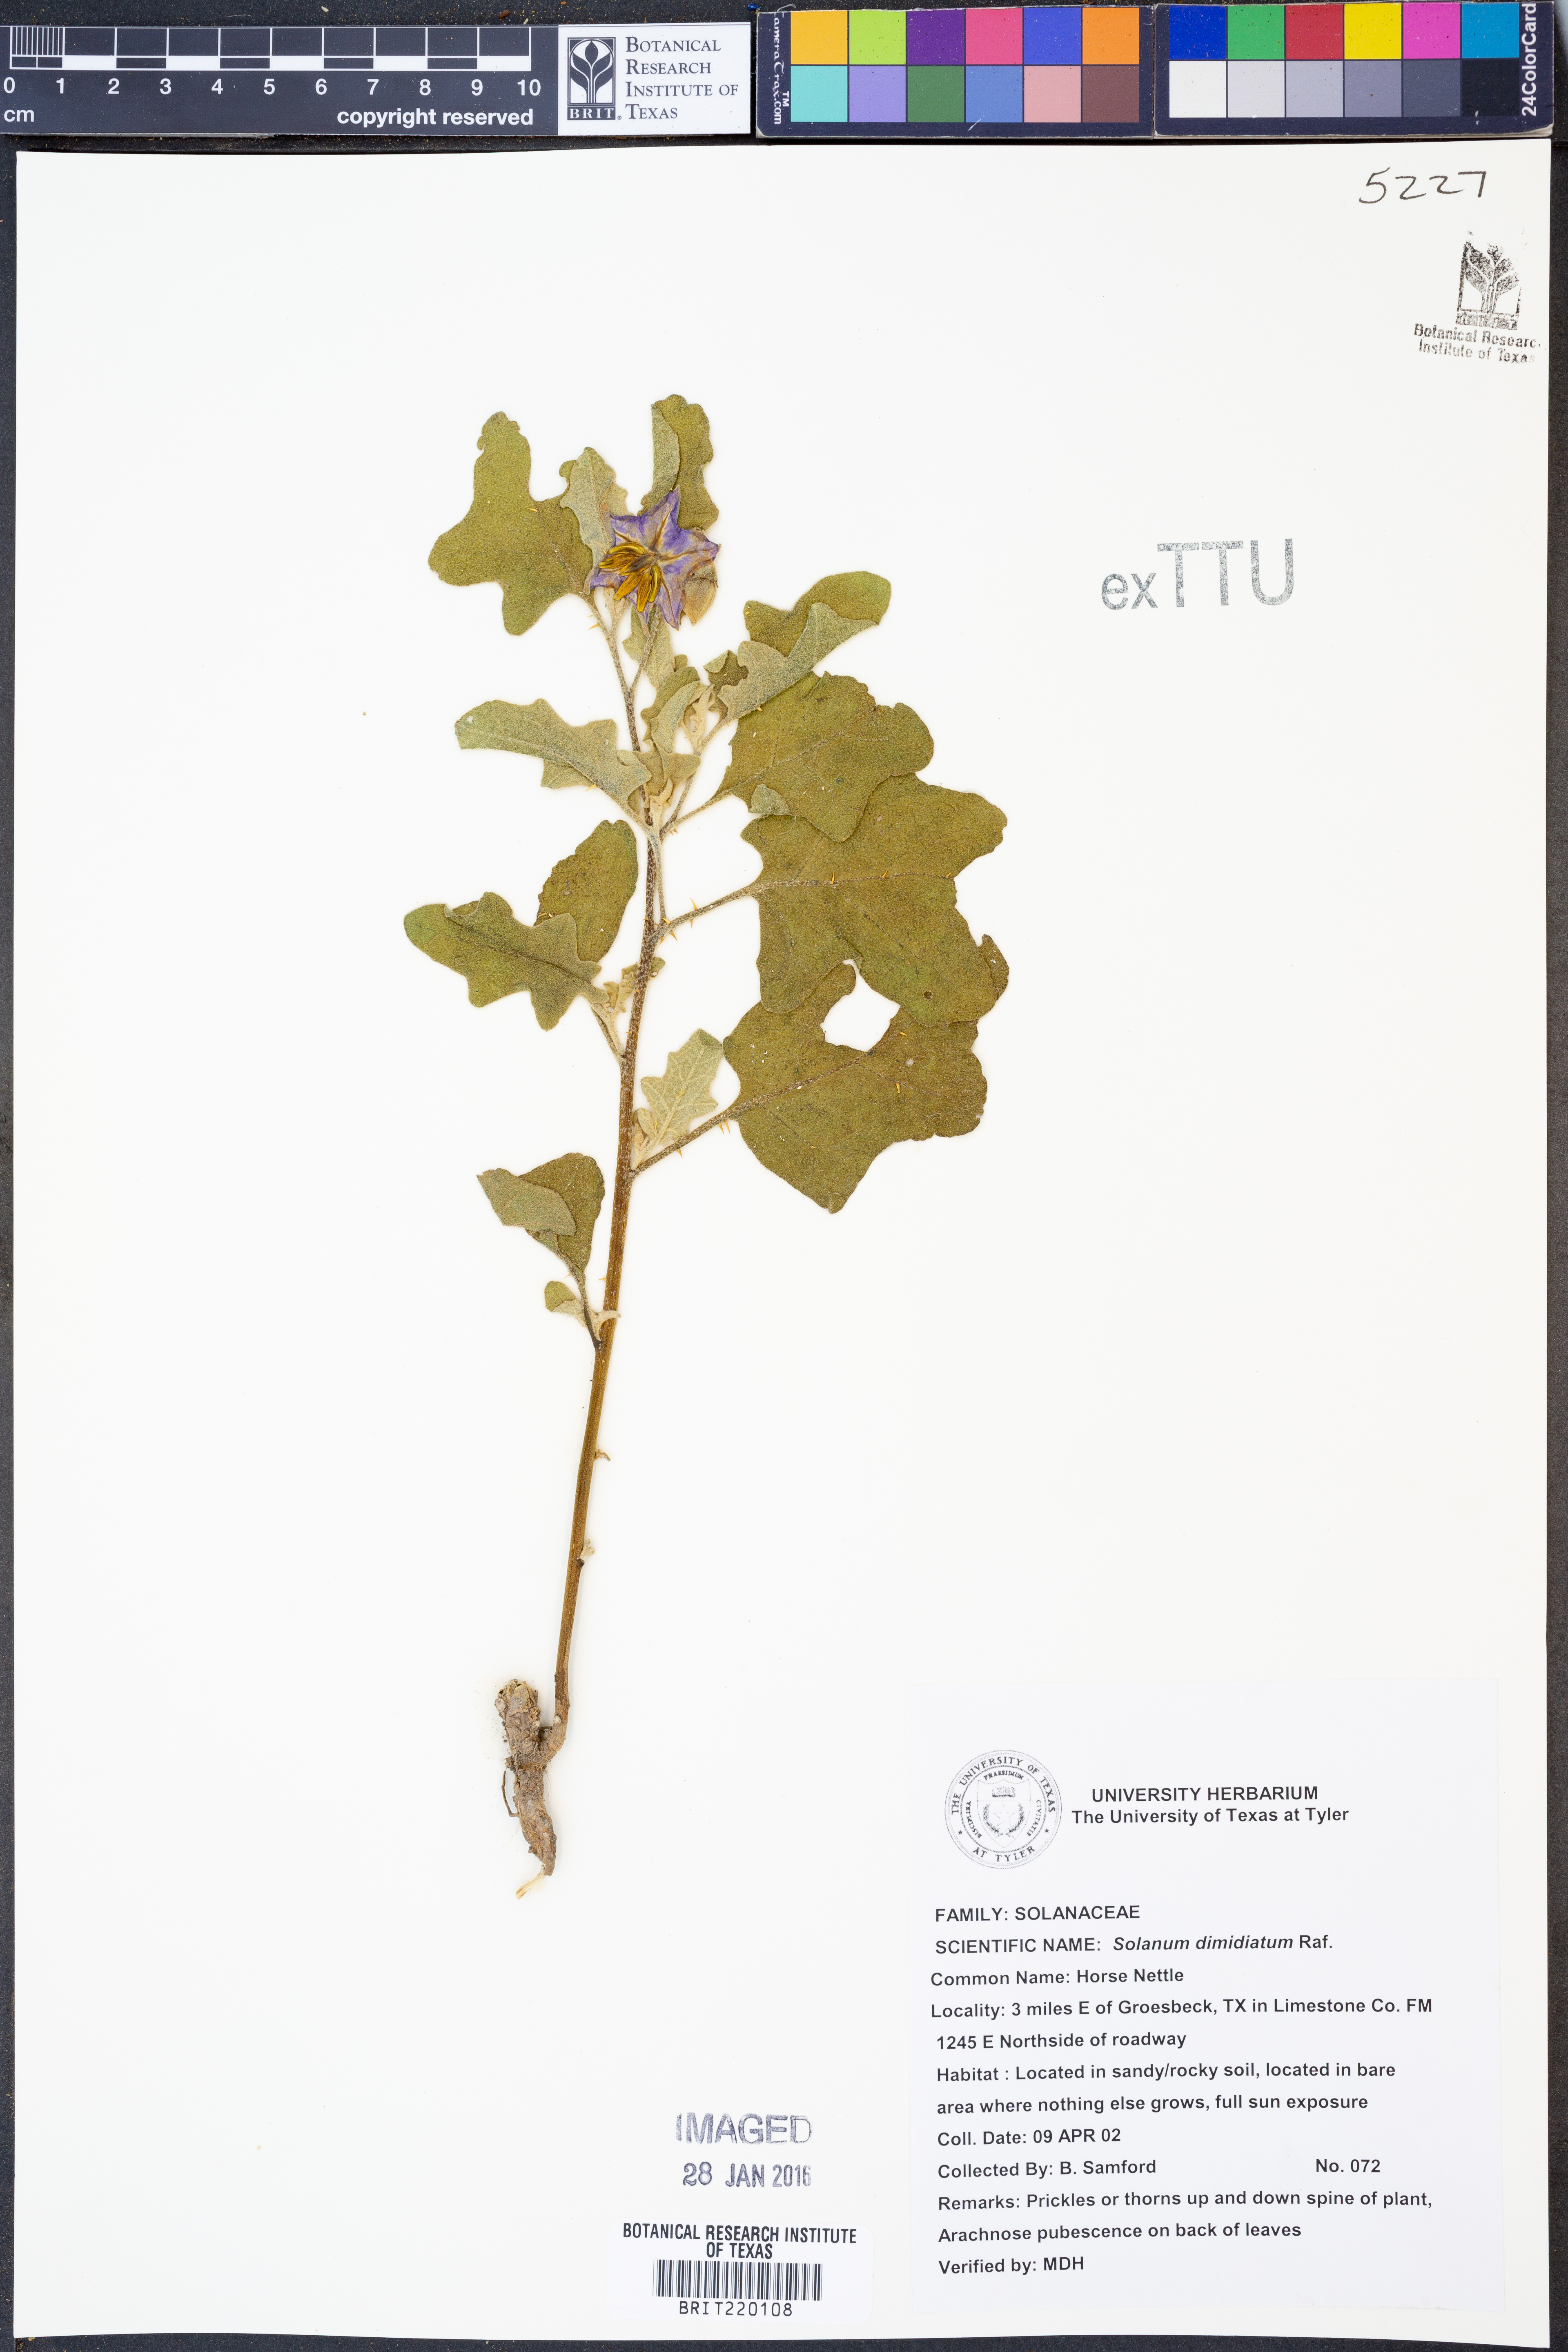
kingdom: Plantae
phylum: Tracheophyta
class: Magnoliopsida
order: Solanales
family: Solanaceae
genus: Solanum
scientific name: Solanum dimidiatum
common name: Carolina horse-nettle
